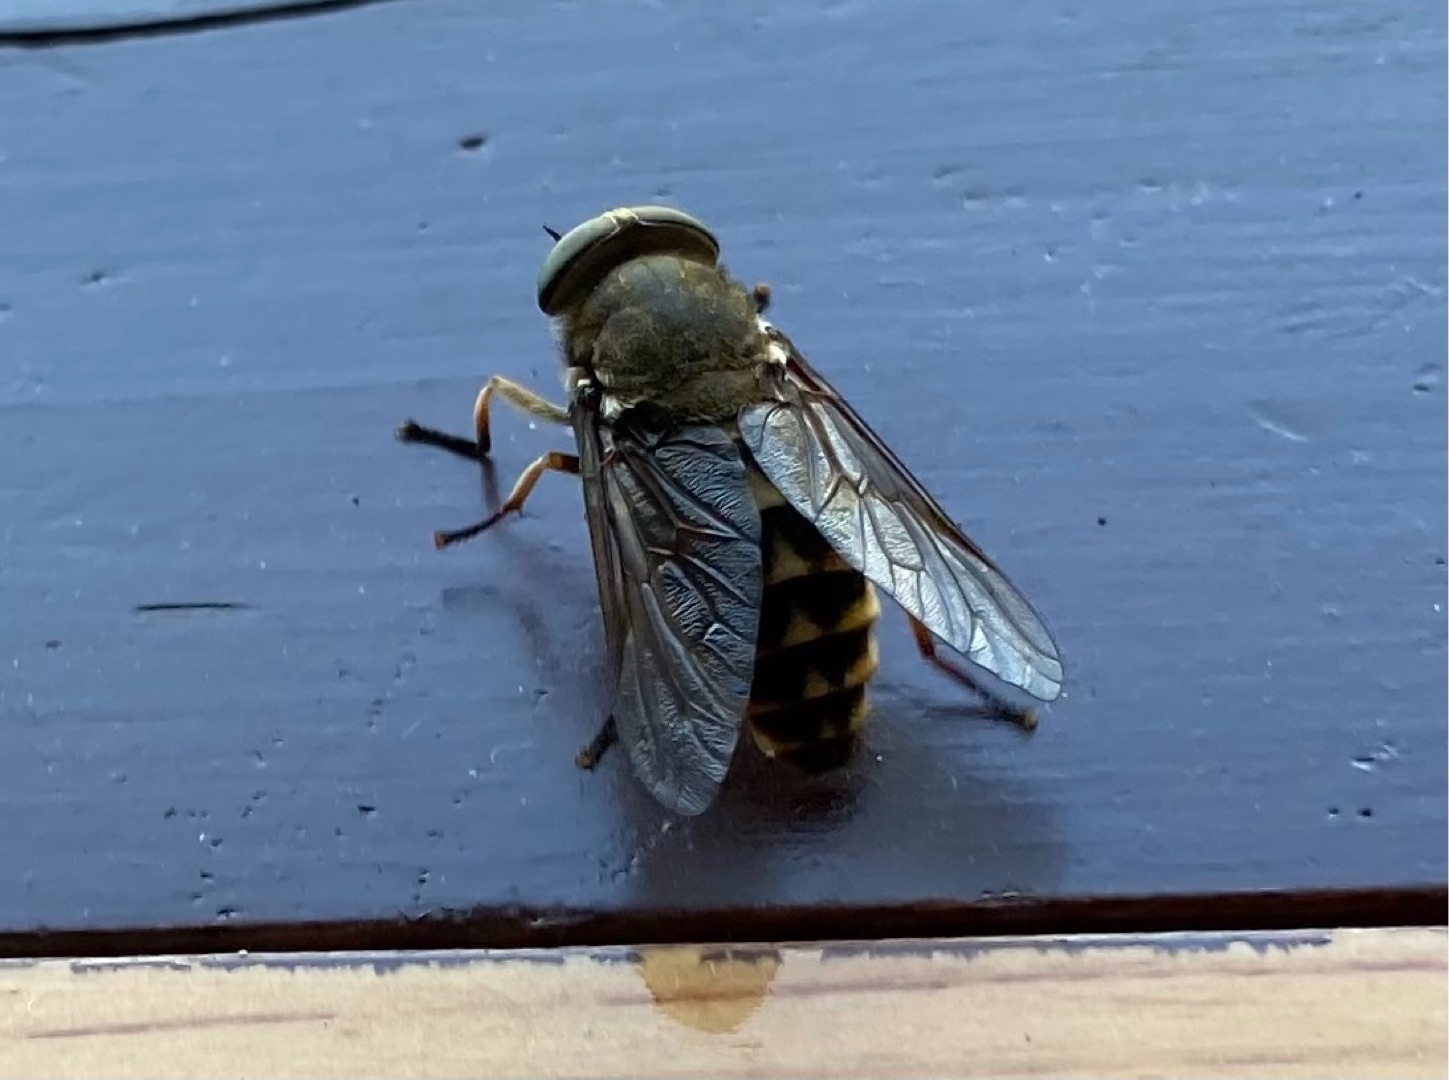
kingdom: Animalia
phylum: Arthropoda
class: Insecta
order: Diptera
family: Tabanidae
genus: Tabanus
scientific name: Tabanus sudeticus
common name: Hesteklæg
